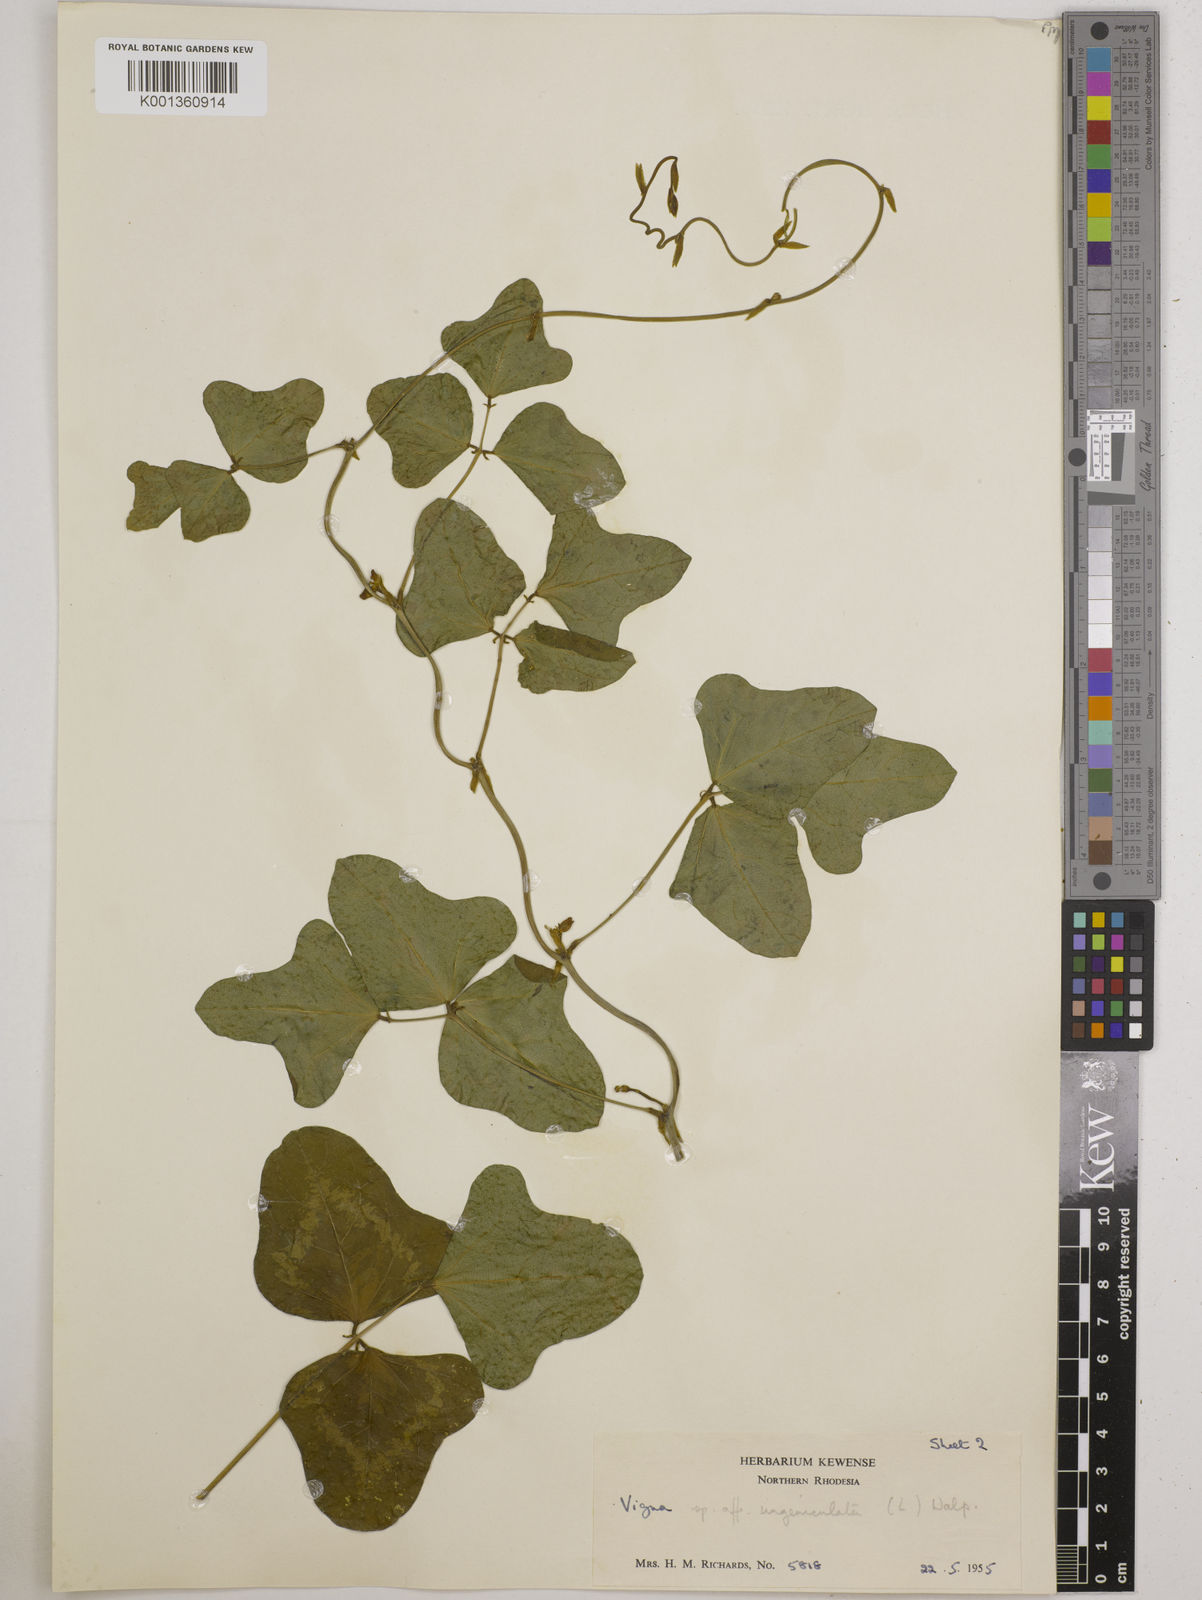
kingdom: Plantae
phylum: Tracheophyta
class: Magnoliopsida
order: Fabales
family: Fabaceae
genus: Vigna
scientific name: Vigna
